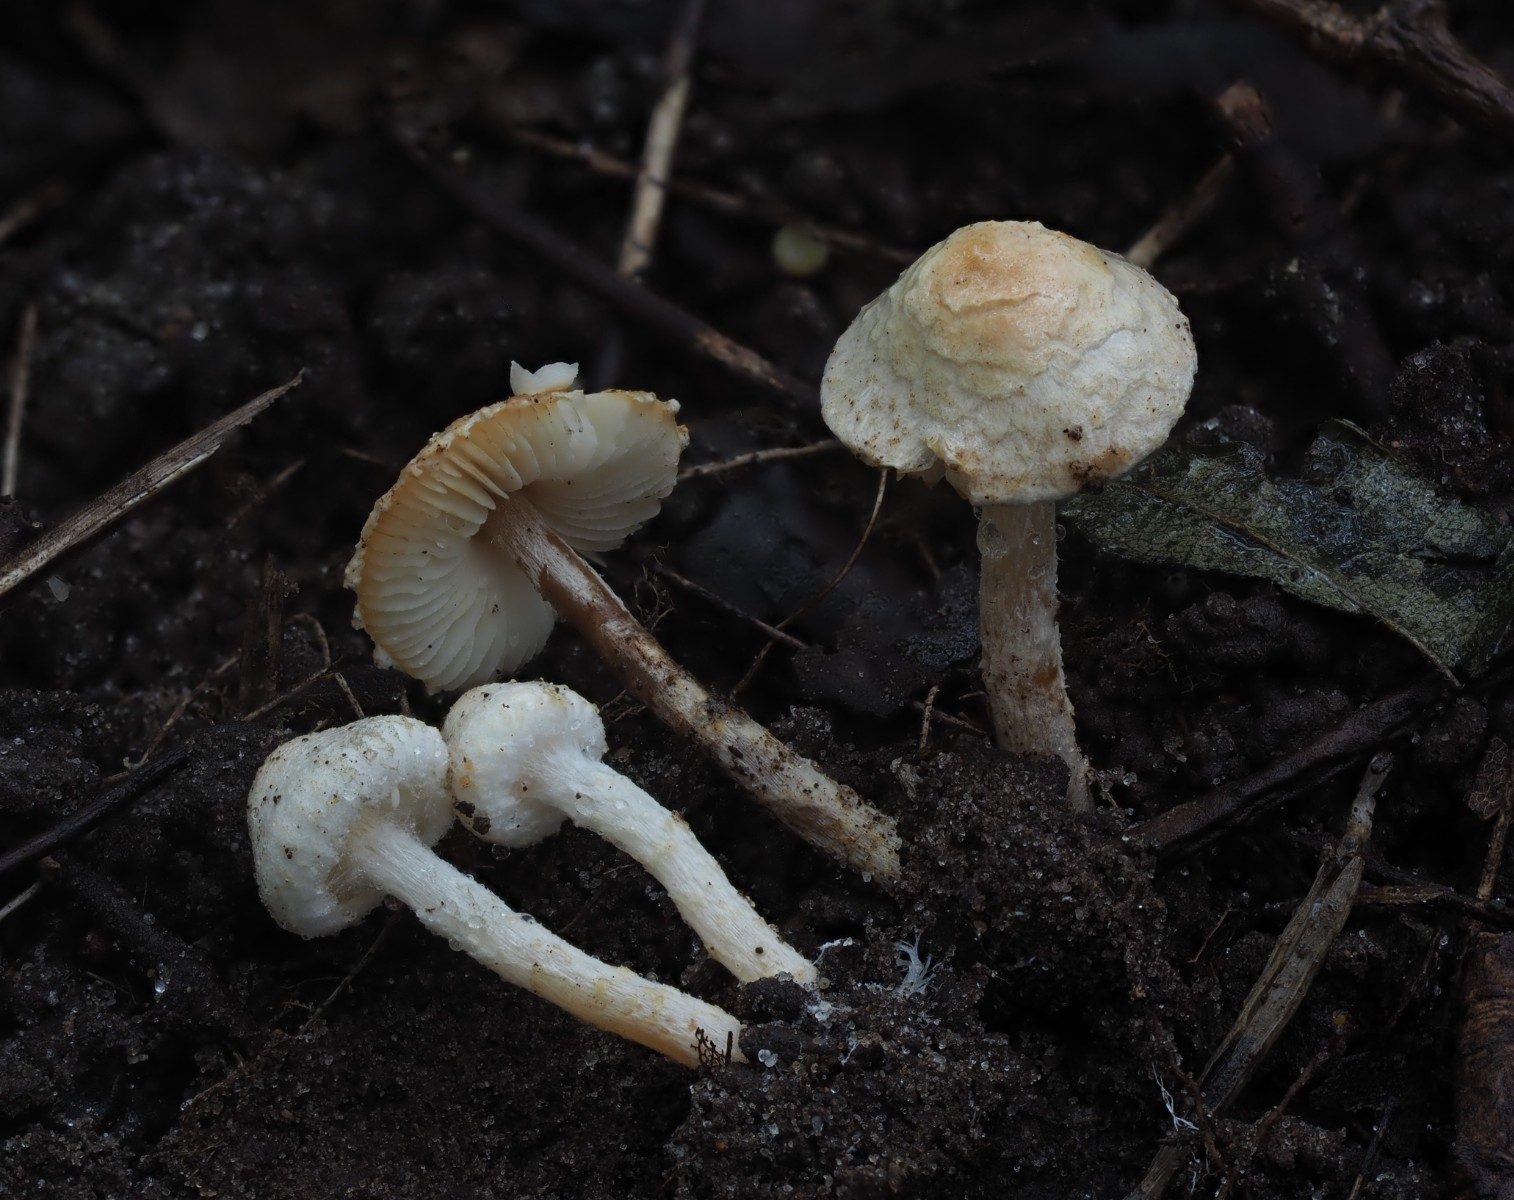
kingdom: Fungi
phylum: Basidiomycota
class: Agaricomycetes
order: Agaricales
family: Agaricaceae
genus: Lepiota
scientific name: Lepiota subalba
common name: hvidlig parasolhat
